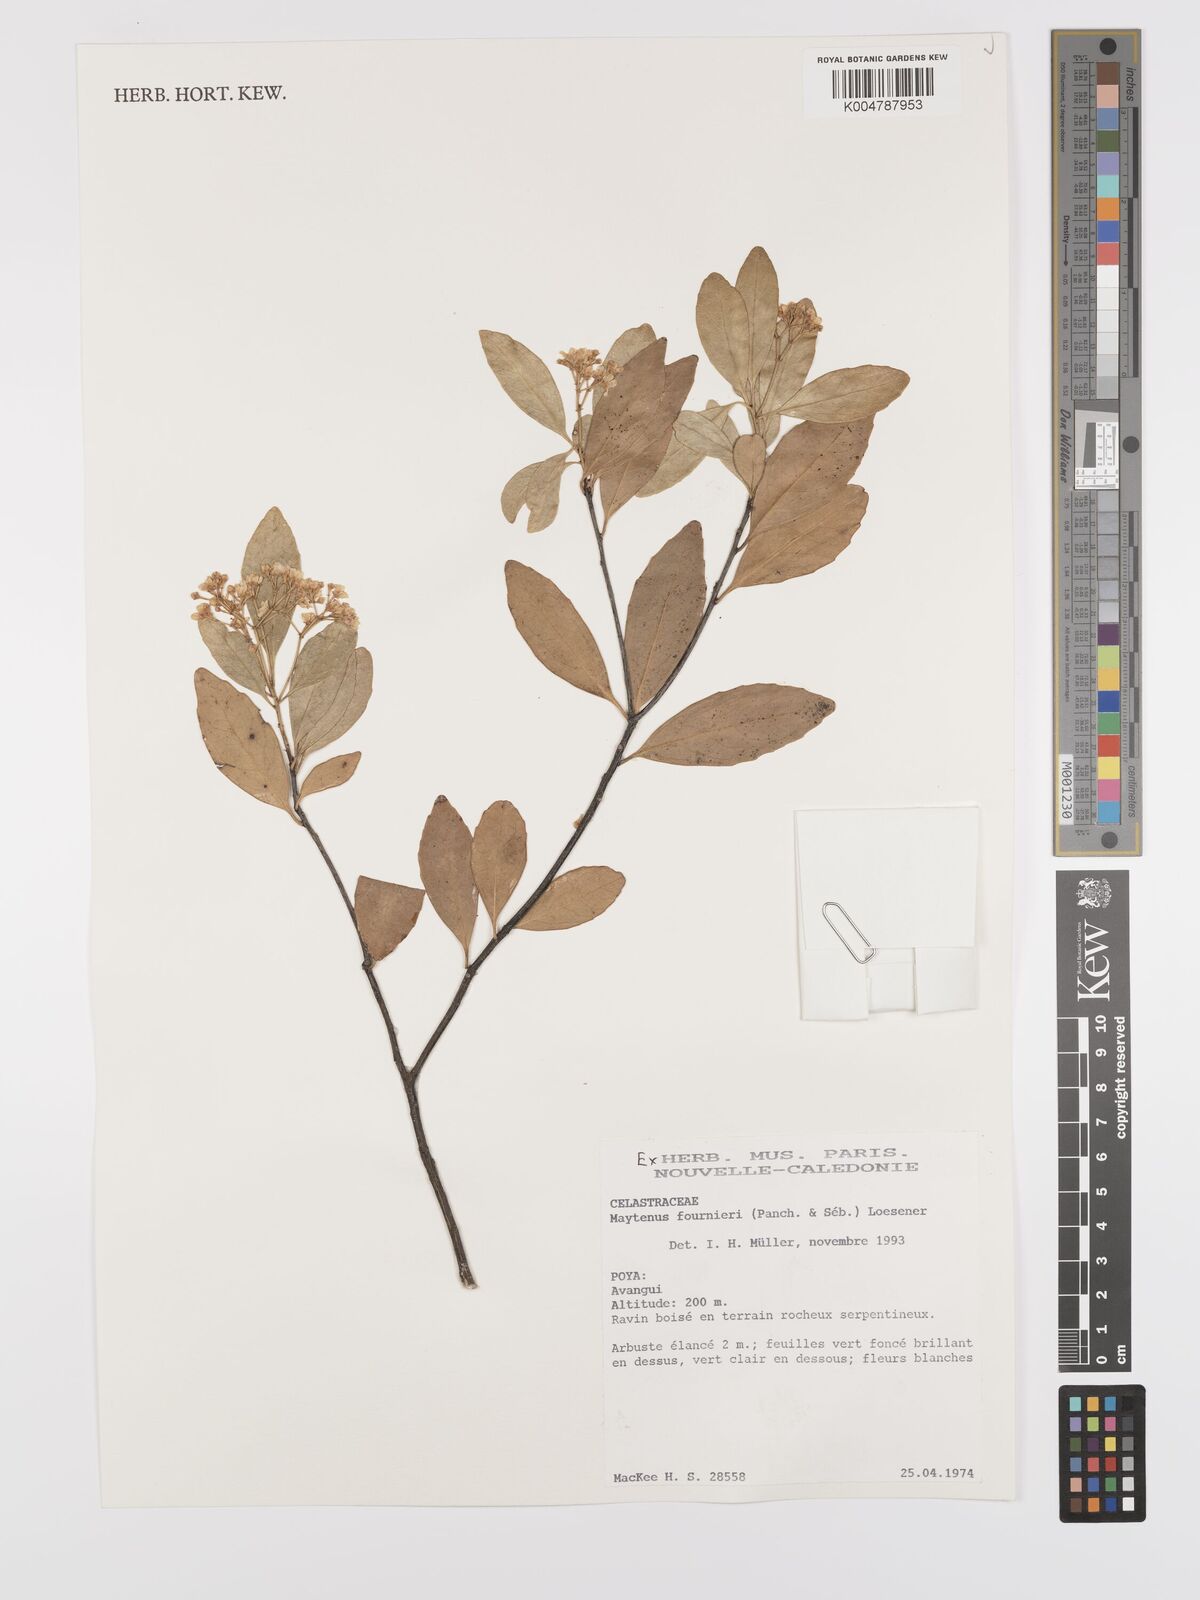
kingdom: Plantae
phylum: Tracheophyta
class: Magnoliopsida
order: Celastrales
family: Celastraceae
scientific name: Celastraceae
